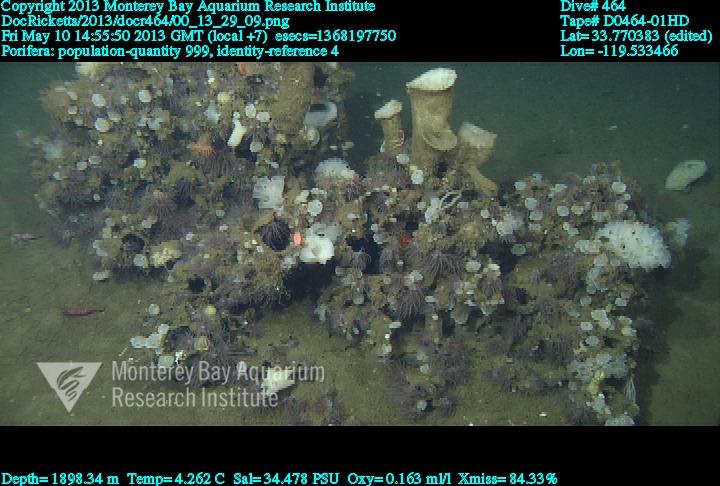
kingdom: Animalia
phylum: Porifera
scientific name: Porifera
